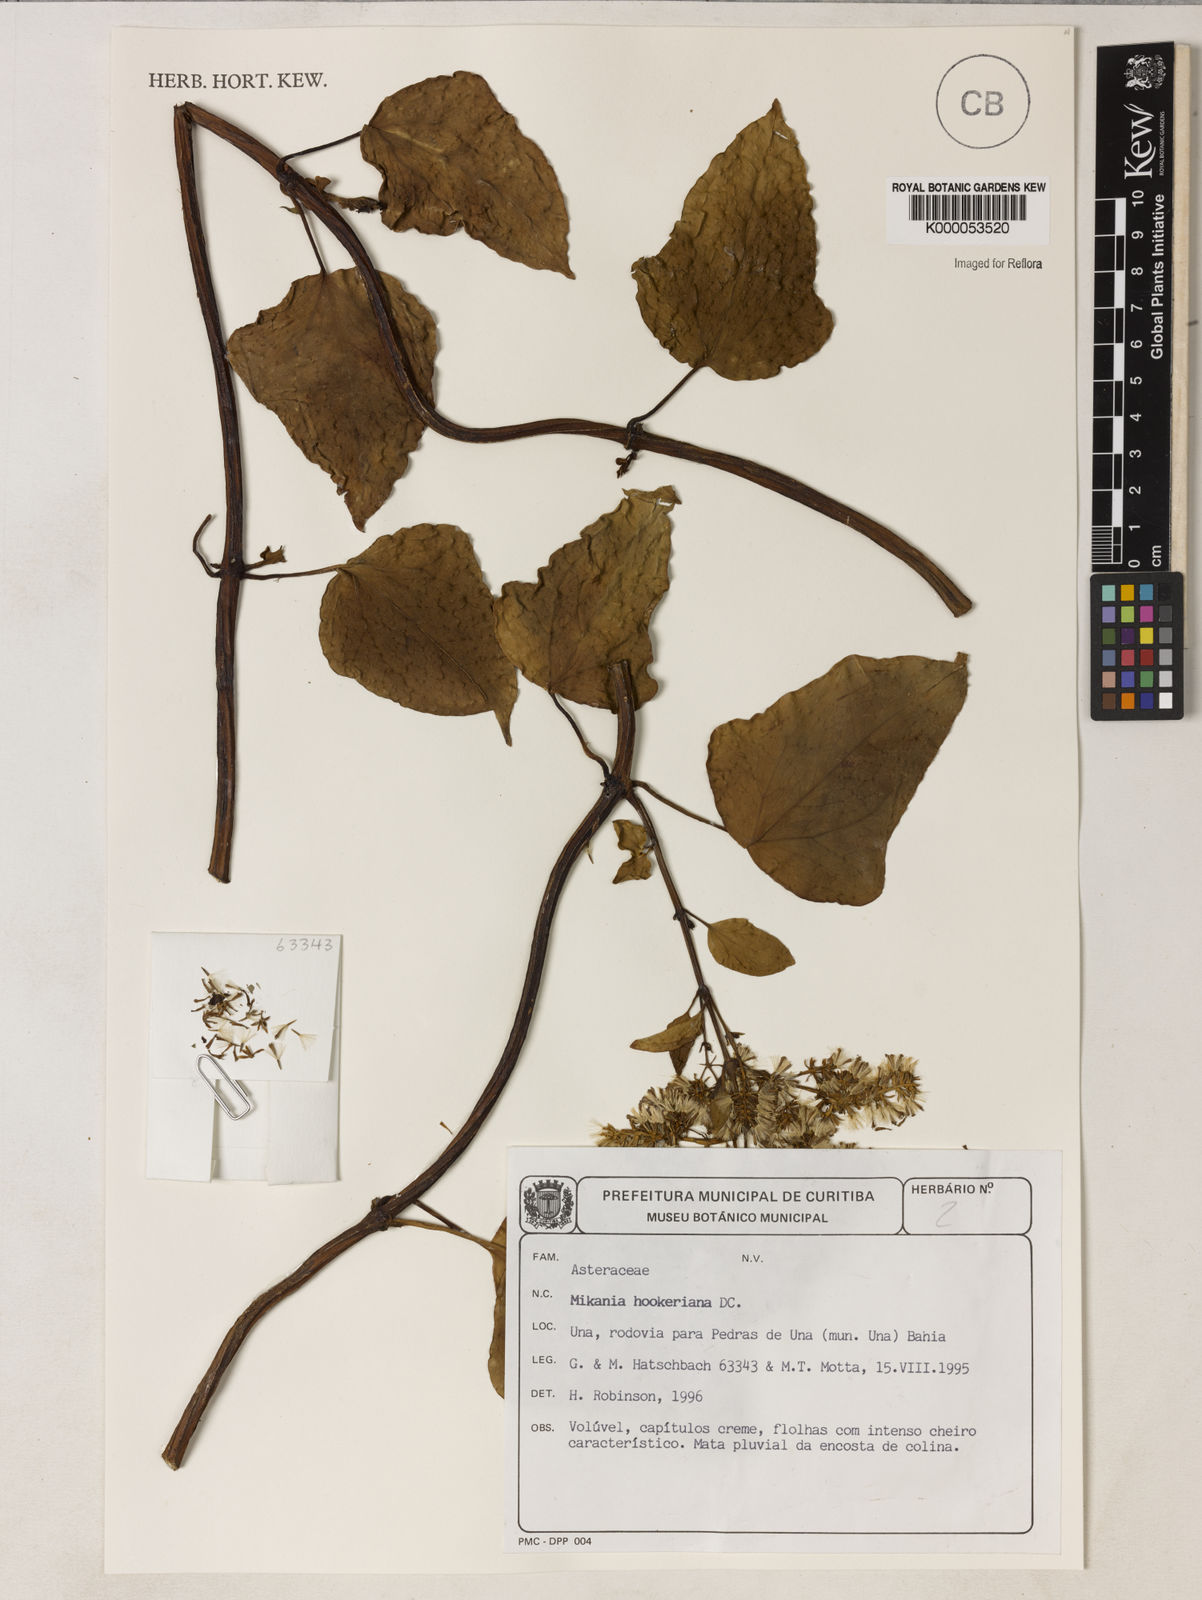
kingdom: Plantae
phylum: Tracheophyta
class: Magnoliopsida
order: Asterales
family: Asteraceae
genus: Mikania
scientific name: Mikania hookeriana
